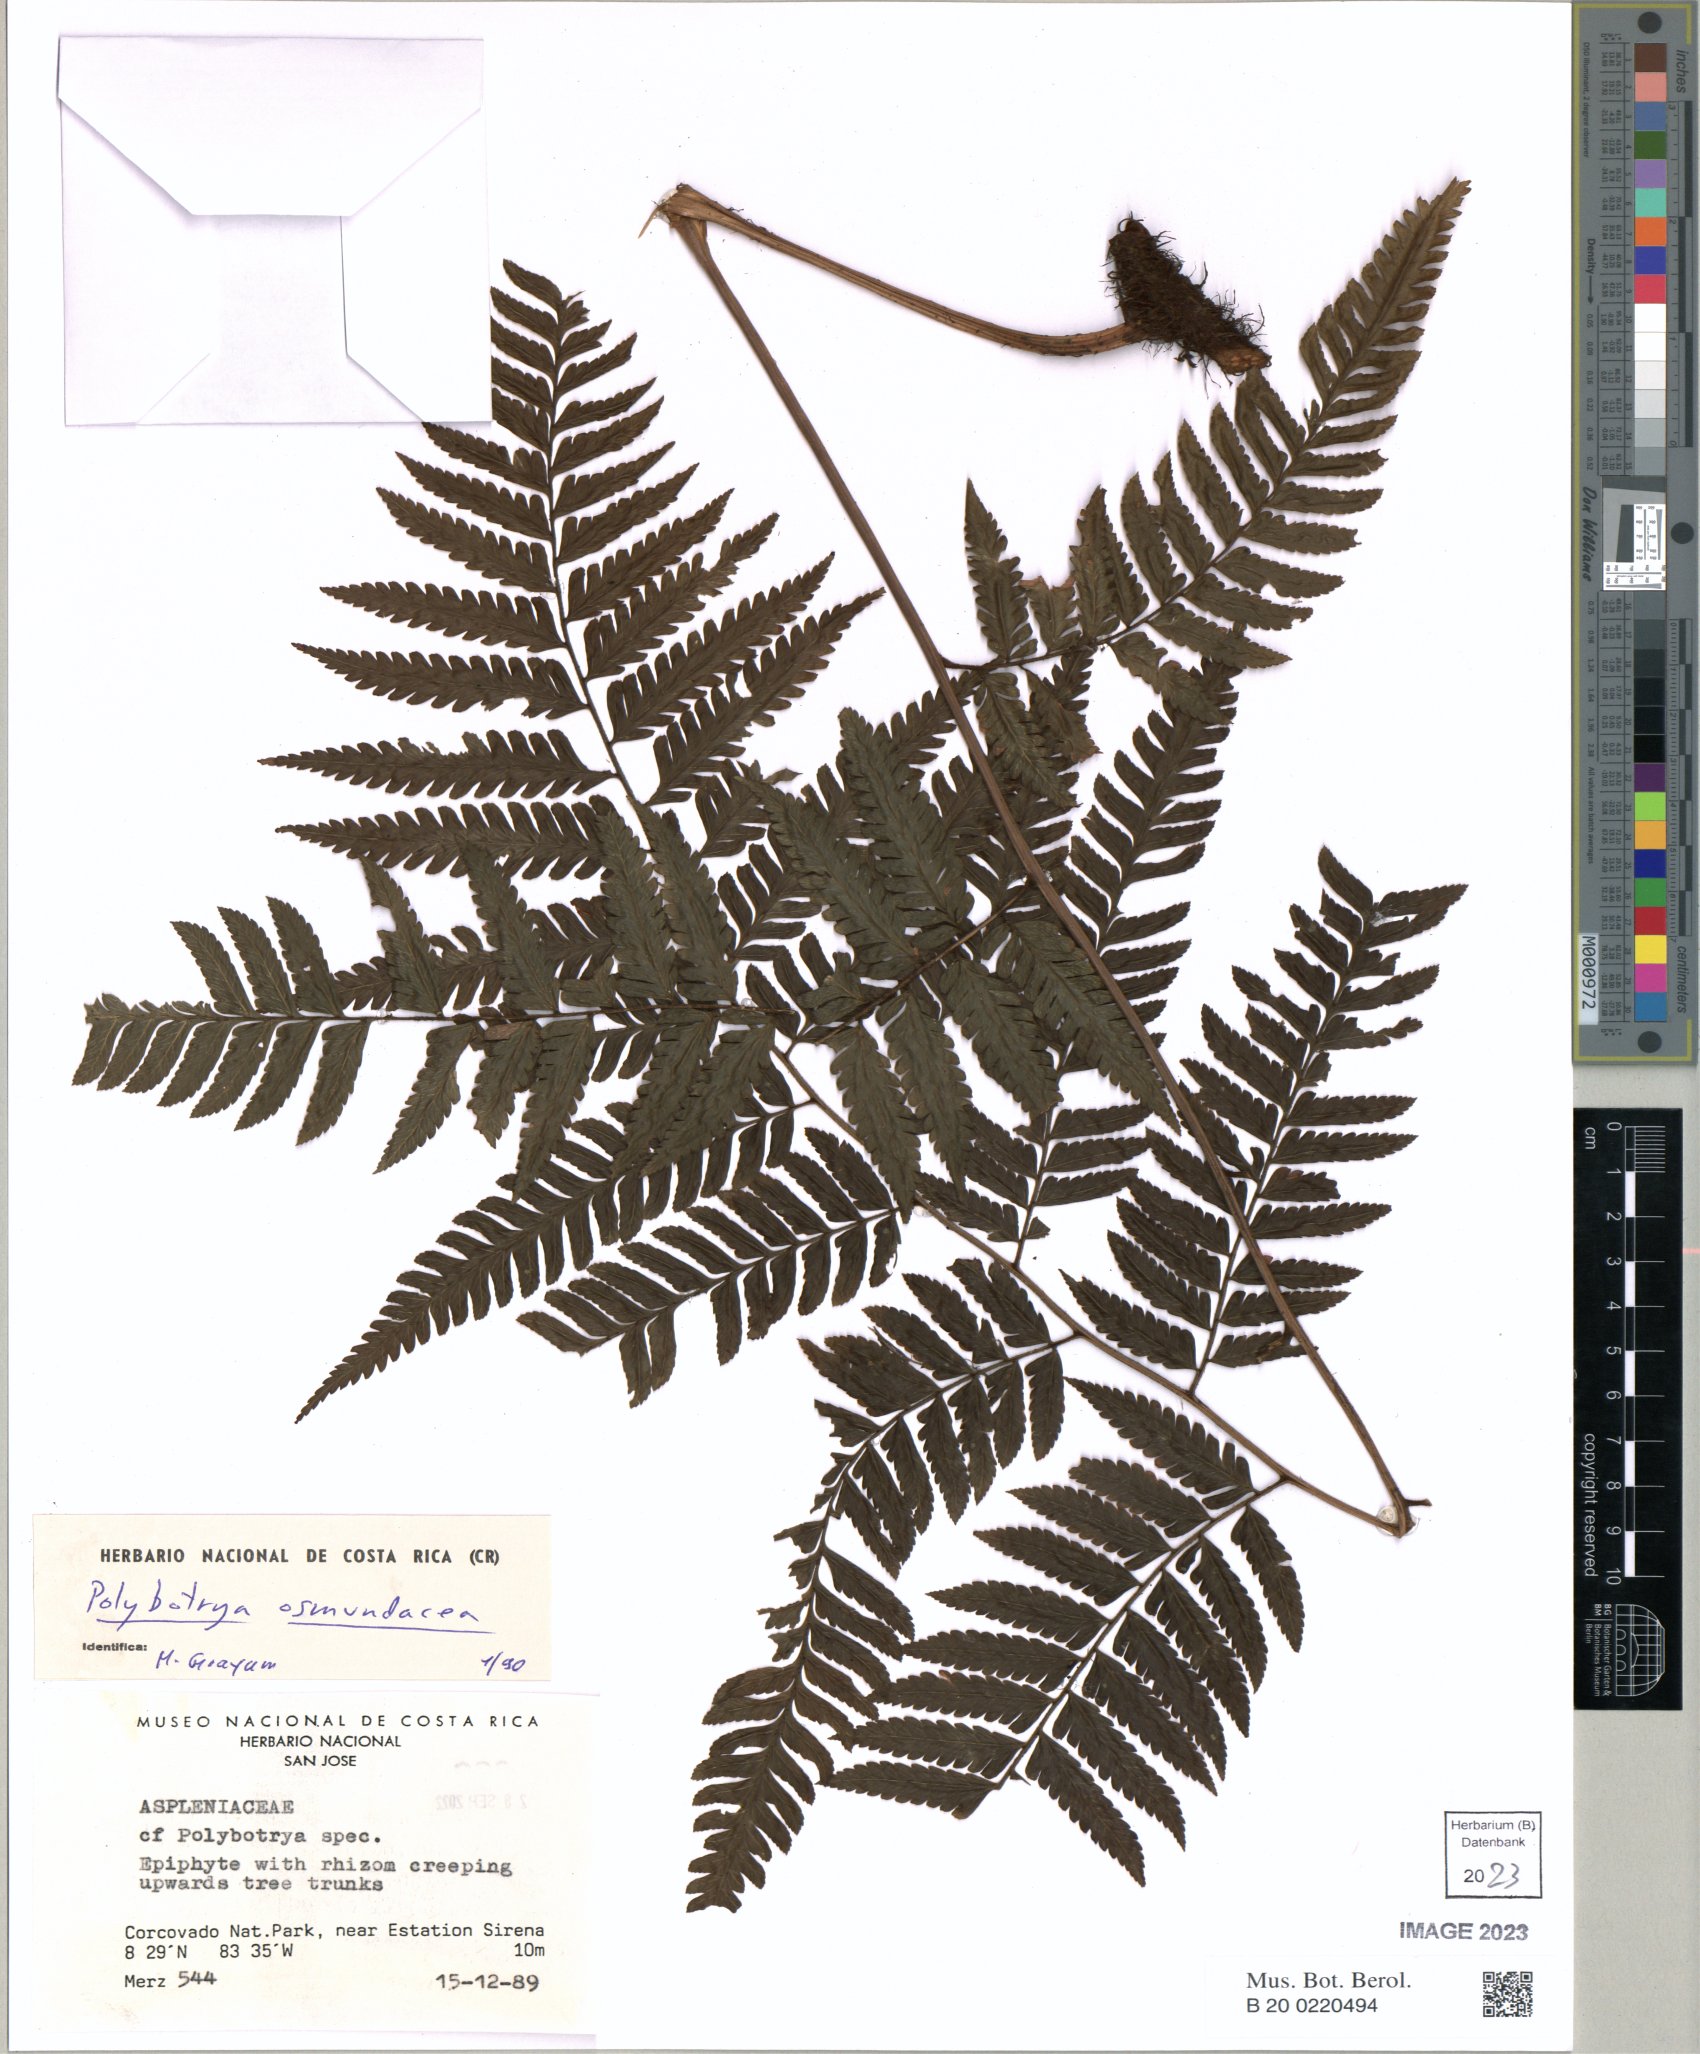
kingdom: Plantae
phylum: Tracheophyta
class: Polypodiopsida
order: Polypodiales
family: Dryopteridaceae
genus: Polybotrya
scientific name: Polybotrya osmundacea
